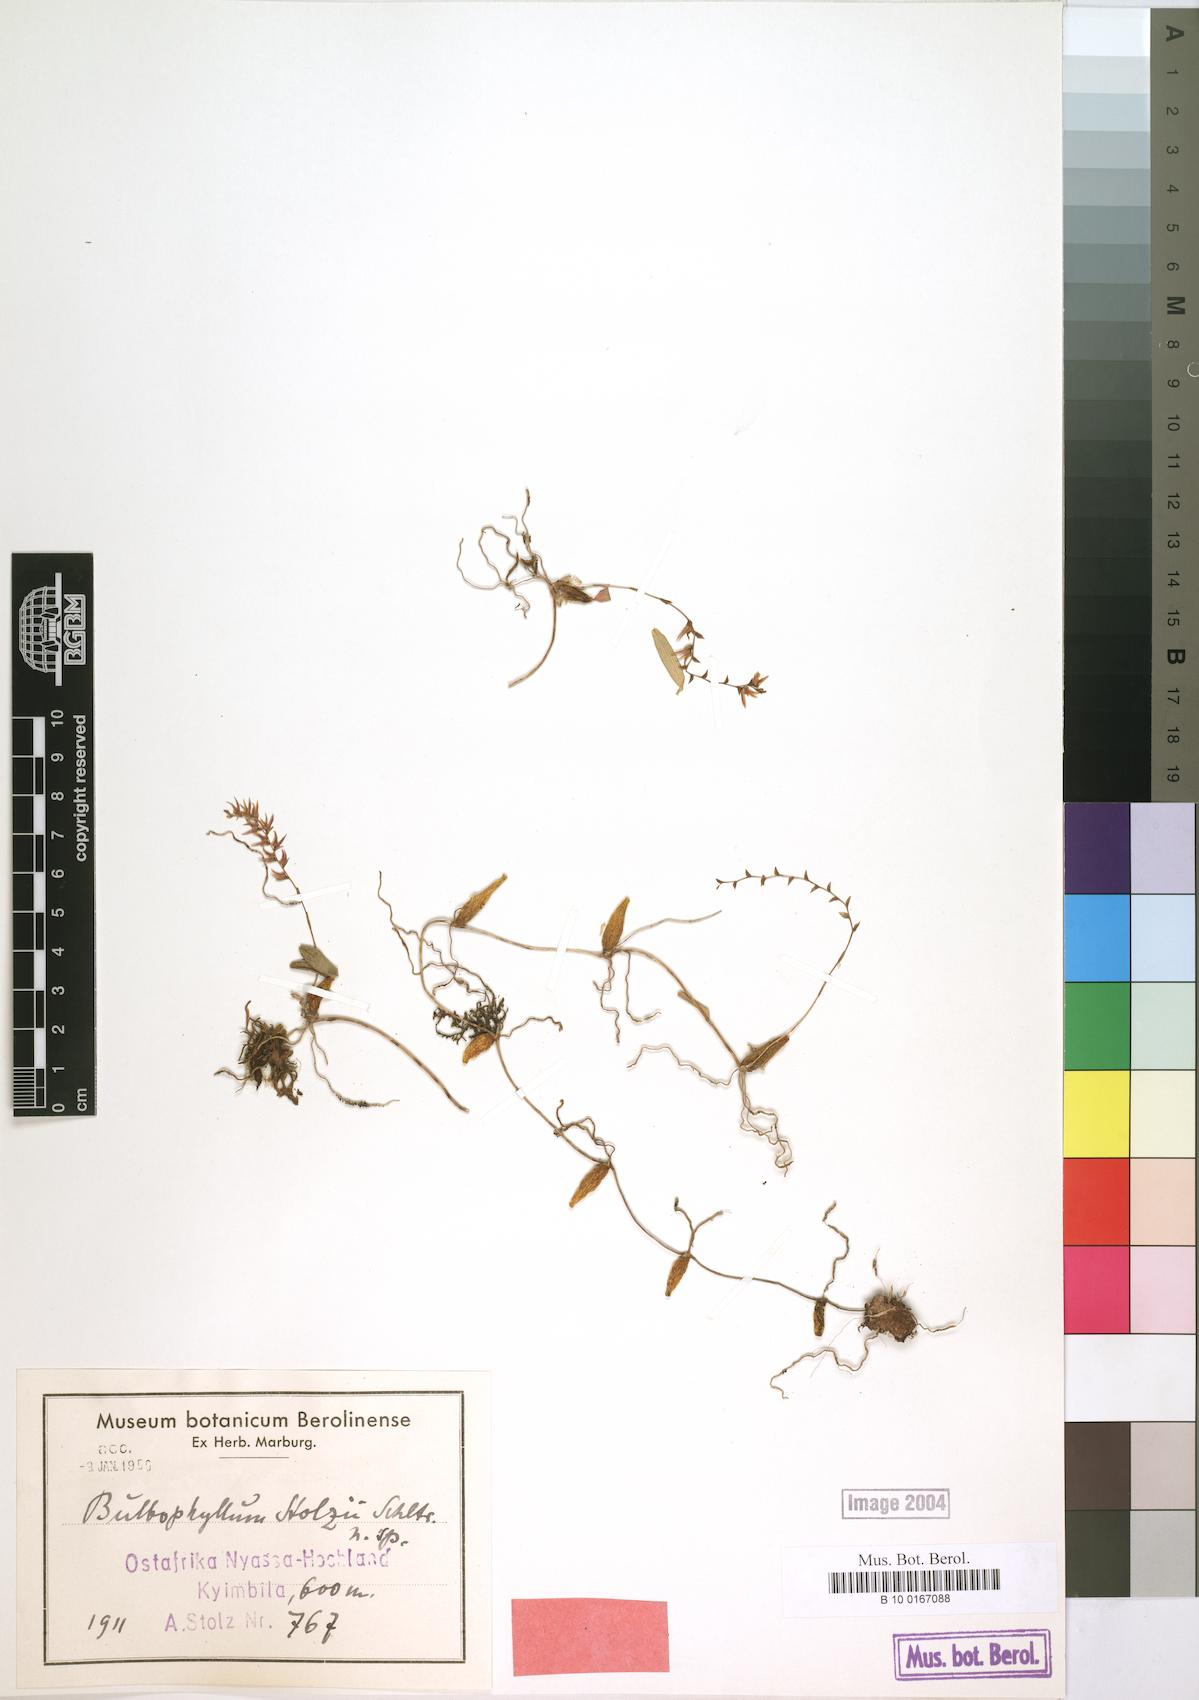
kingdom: Plantae
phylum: Tracheophyta
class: Liliopsida
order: Asparagales
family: Orchidaceae
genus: Bulbophyllum
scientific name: Bulbophyllum stolzii
